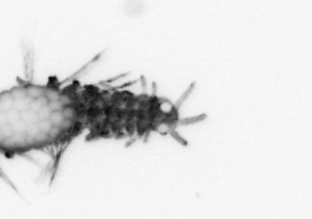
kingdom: Animalia
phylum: Annelida
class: Polychaeta
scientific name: Polychaeta
